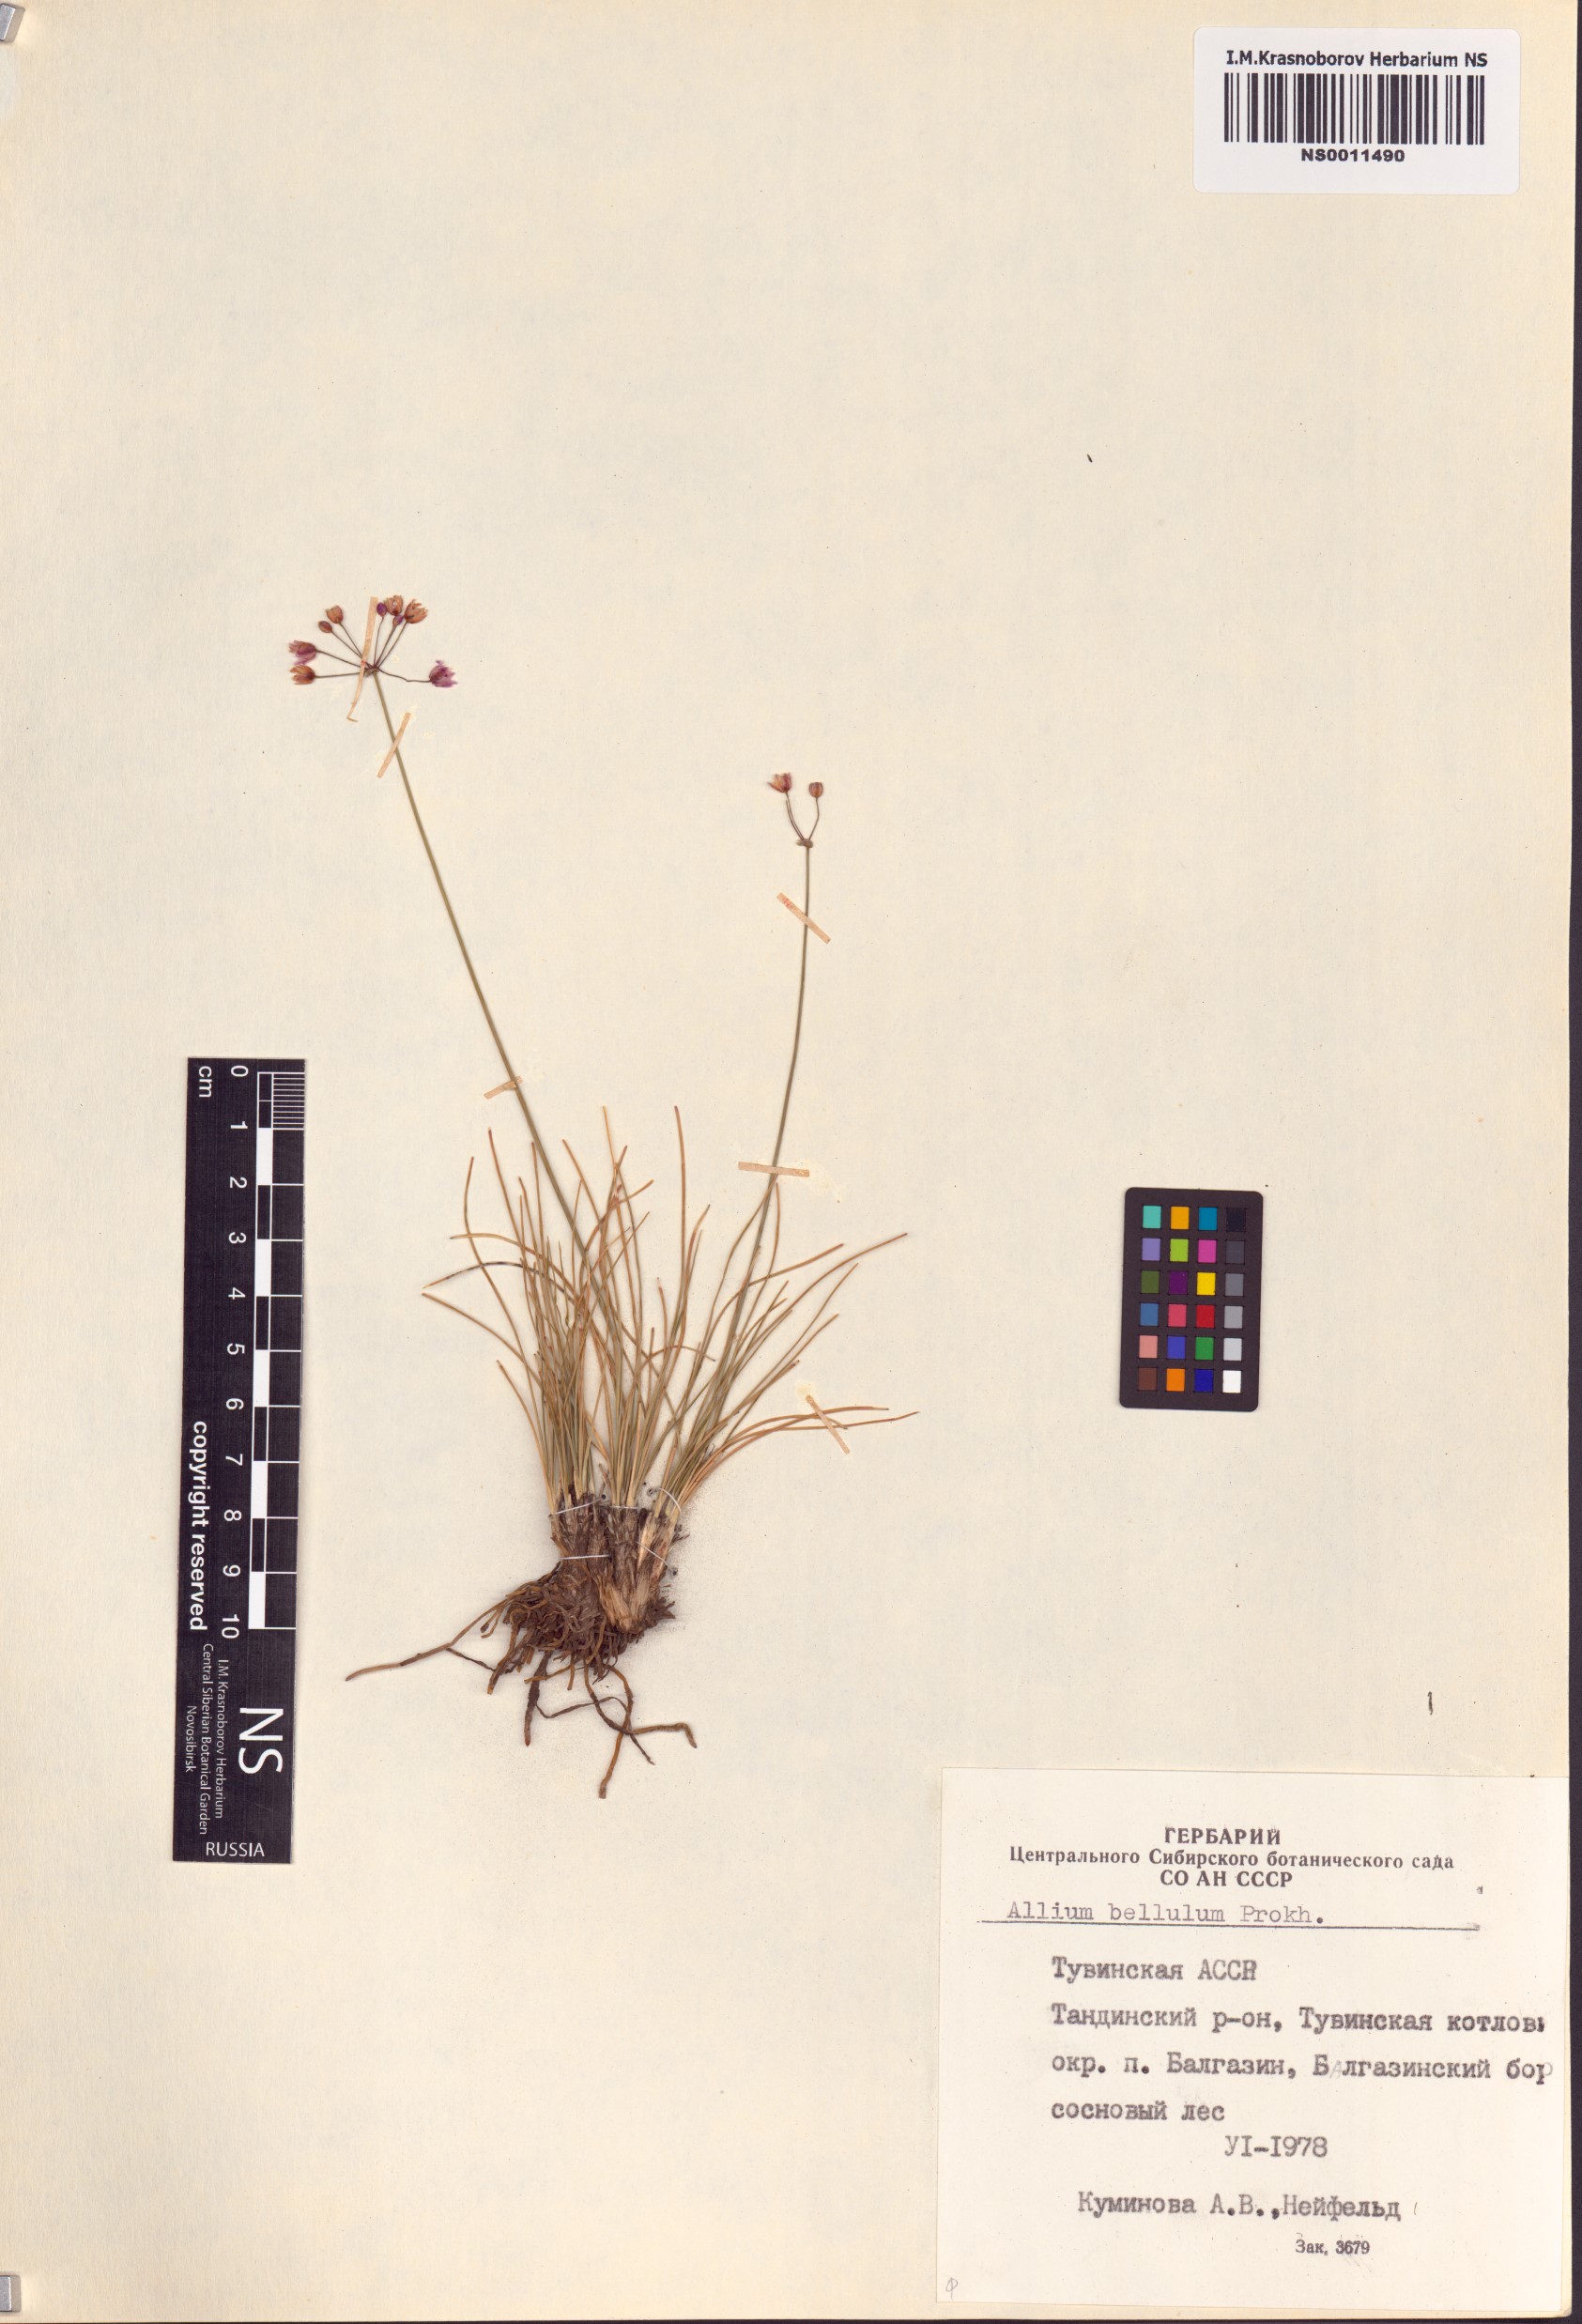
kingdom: Plantae
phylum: Tracheophyta
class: Liliopsida
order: Asparagales
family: Amaryllidaceae
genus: Allium
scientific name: Allium bellulum
